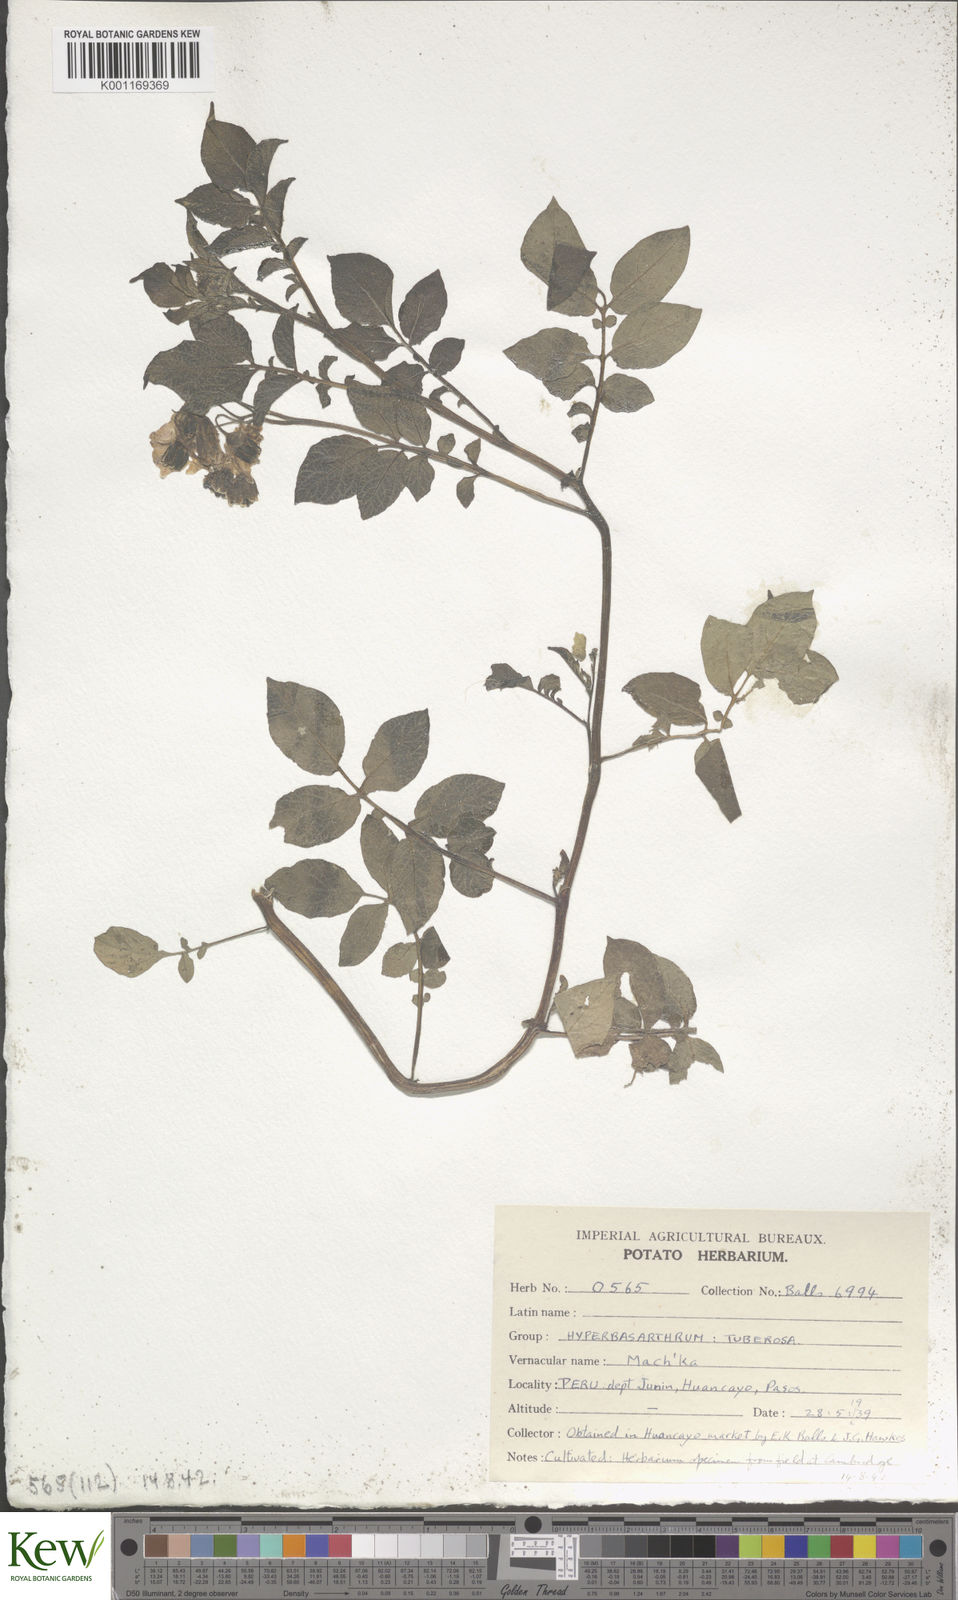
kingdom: Plantae
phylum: Tracheophyta
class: Magnoliopsida
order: Solanales
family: Solanaceae
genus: Solanum
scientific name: Solanum chaucha
